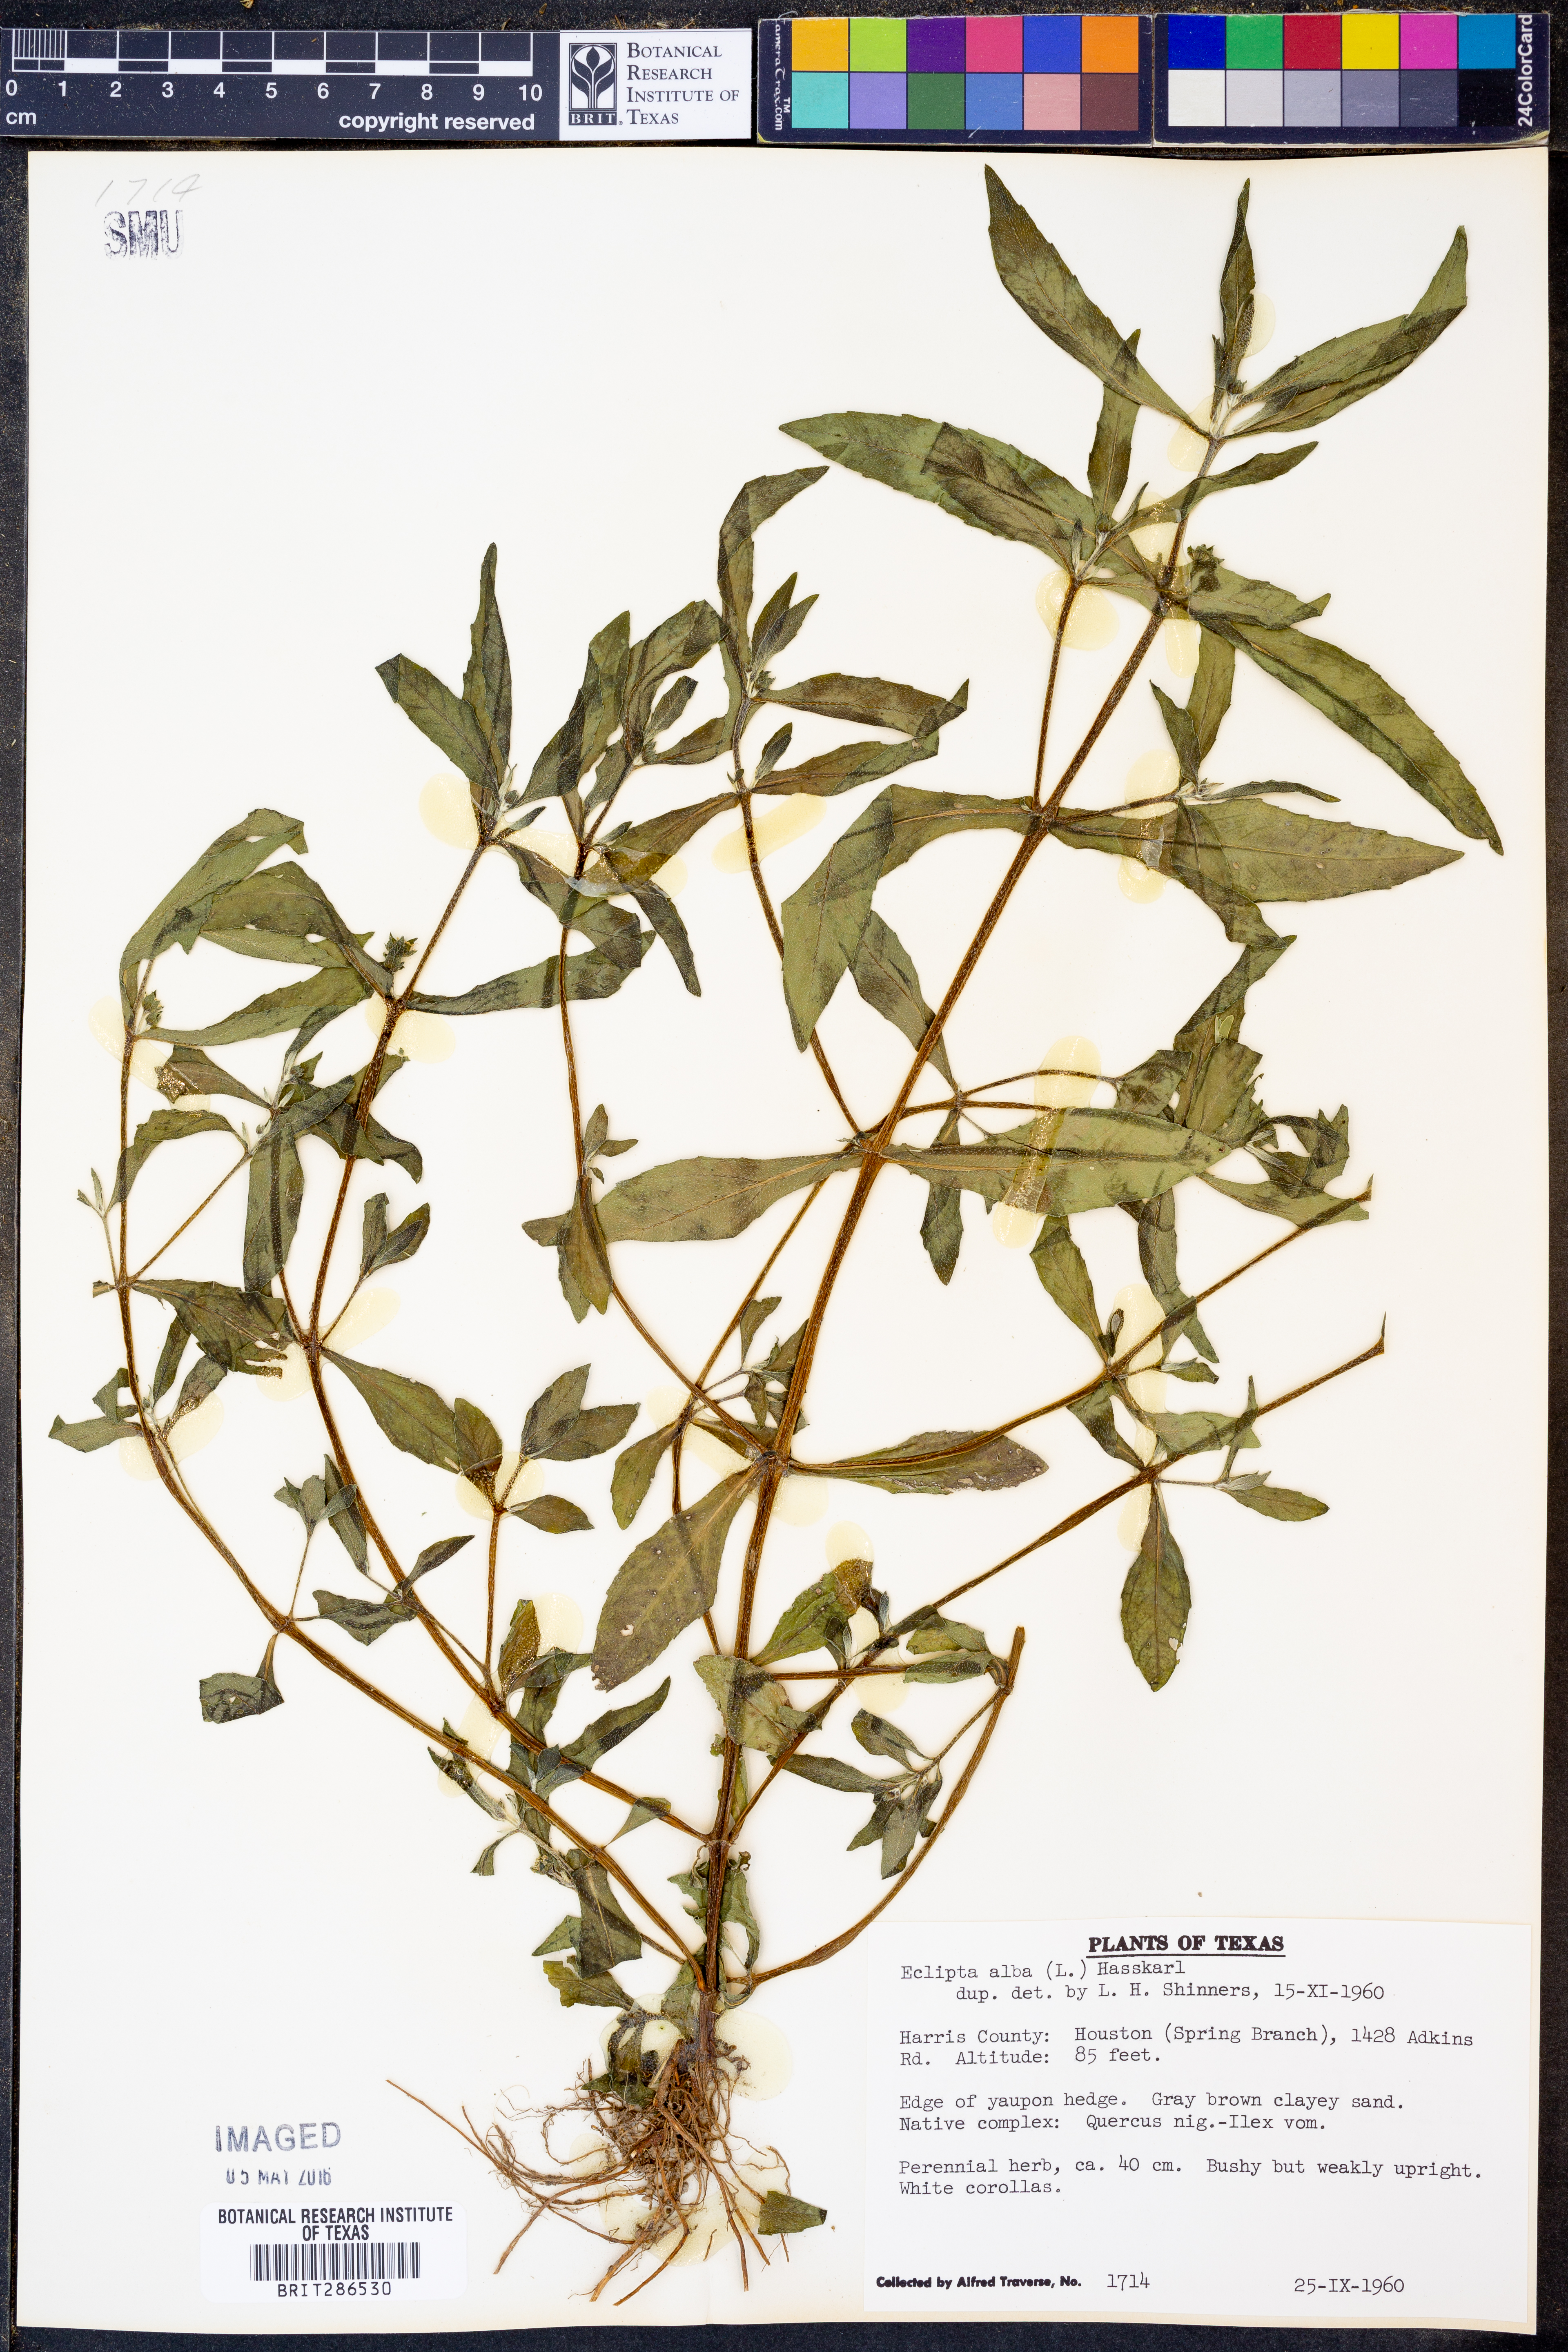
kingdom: Plantae
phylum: Tracheophyta
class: Magnoliopsida
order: Asterales
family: Asteraceae
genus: Eclipta
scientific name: Eclipta alba
